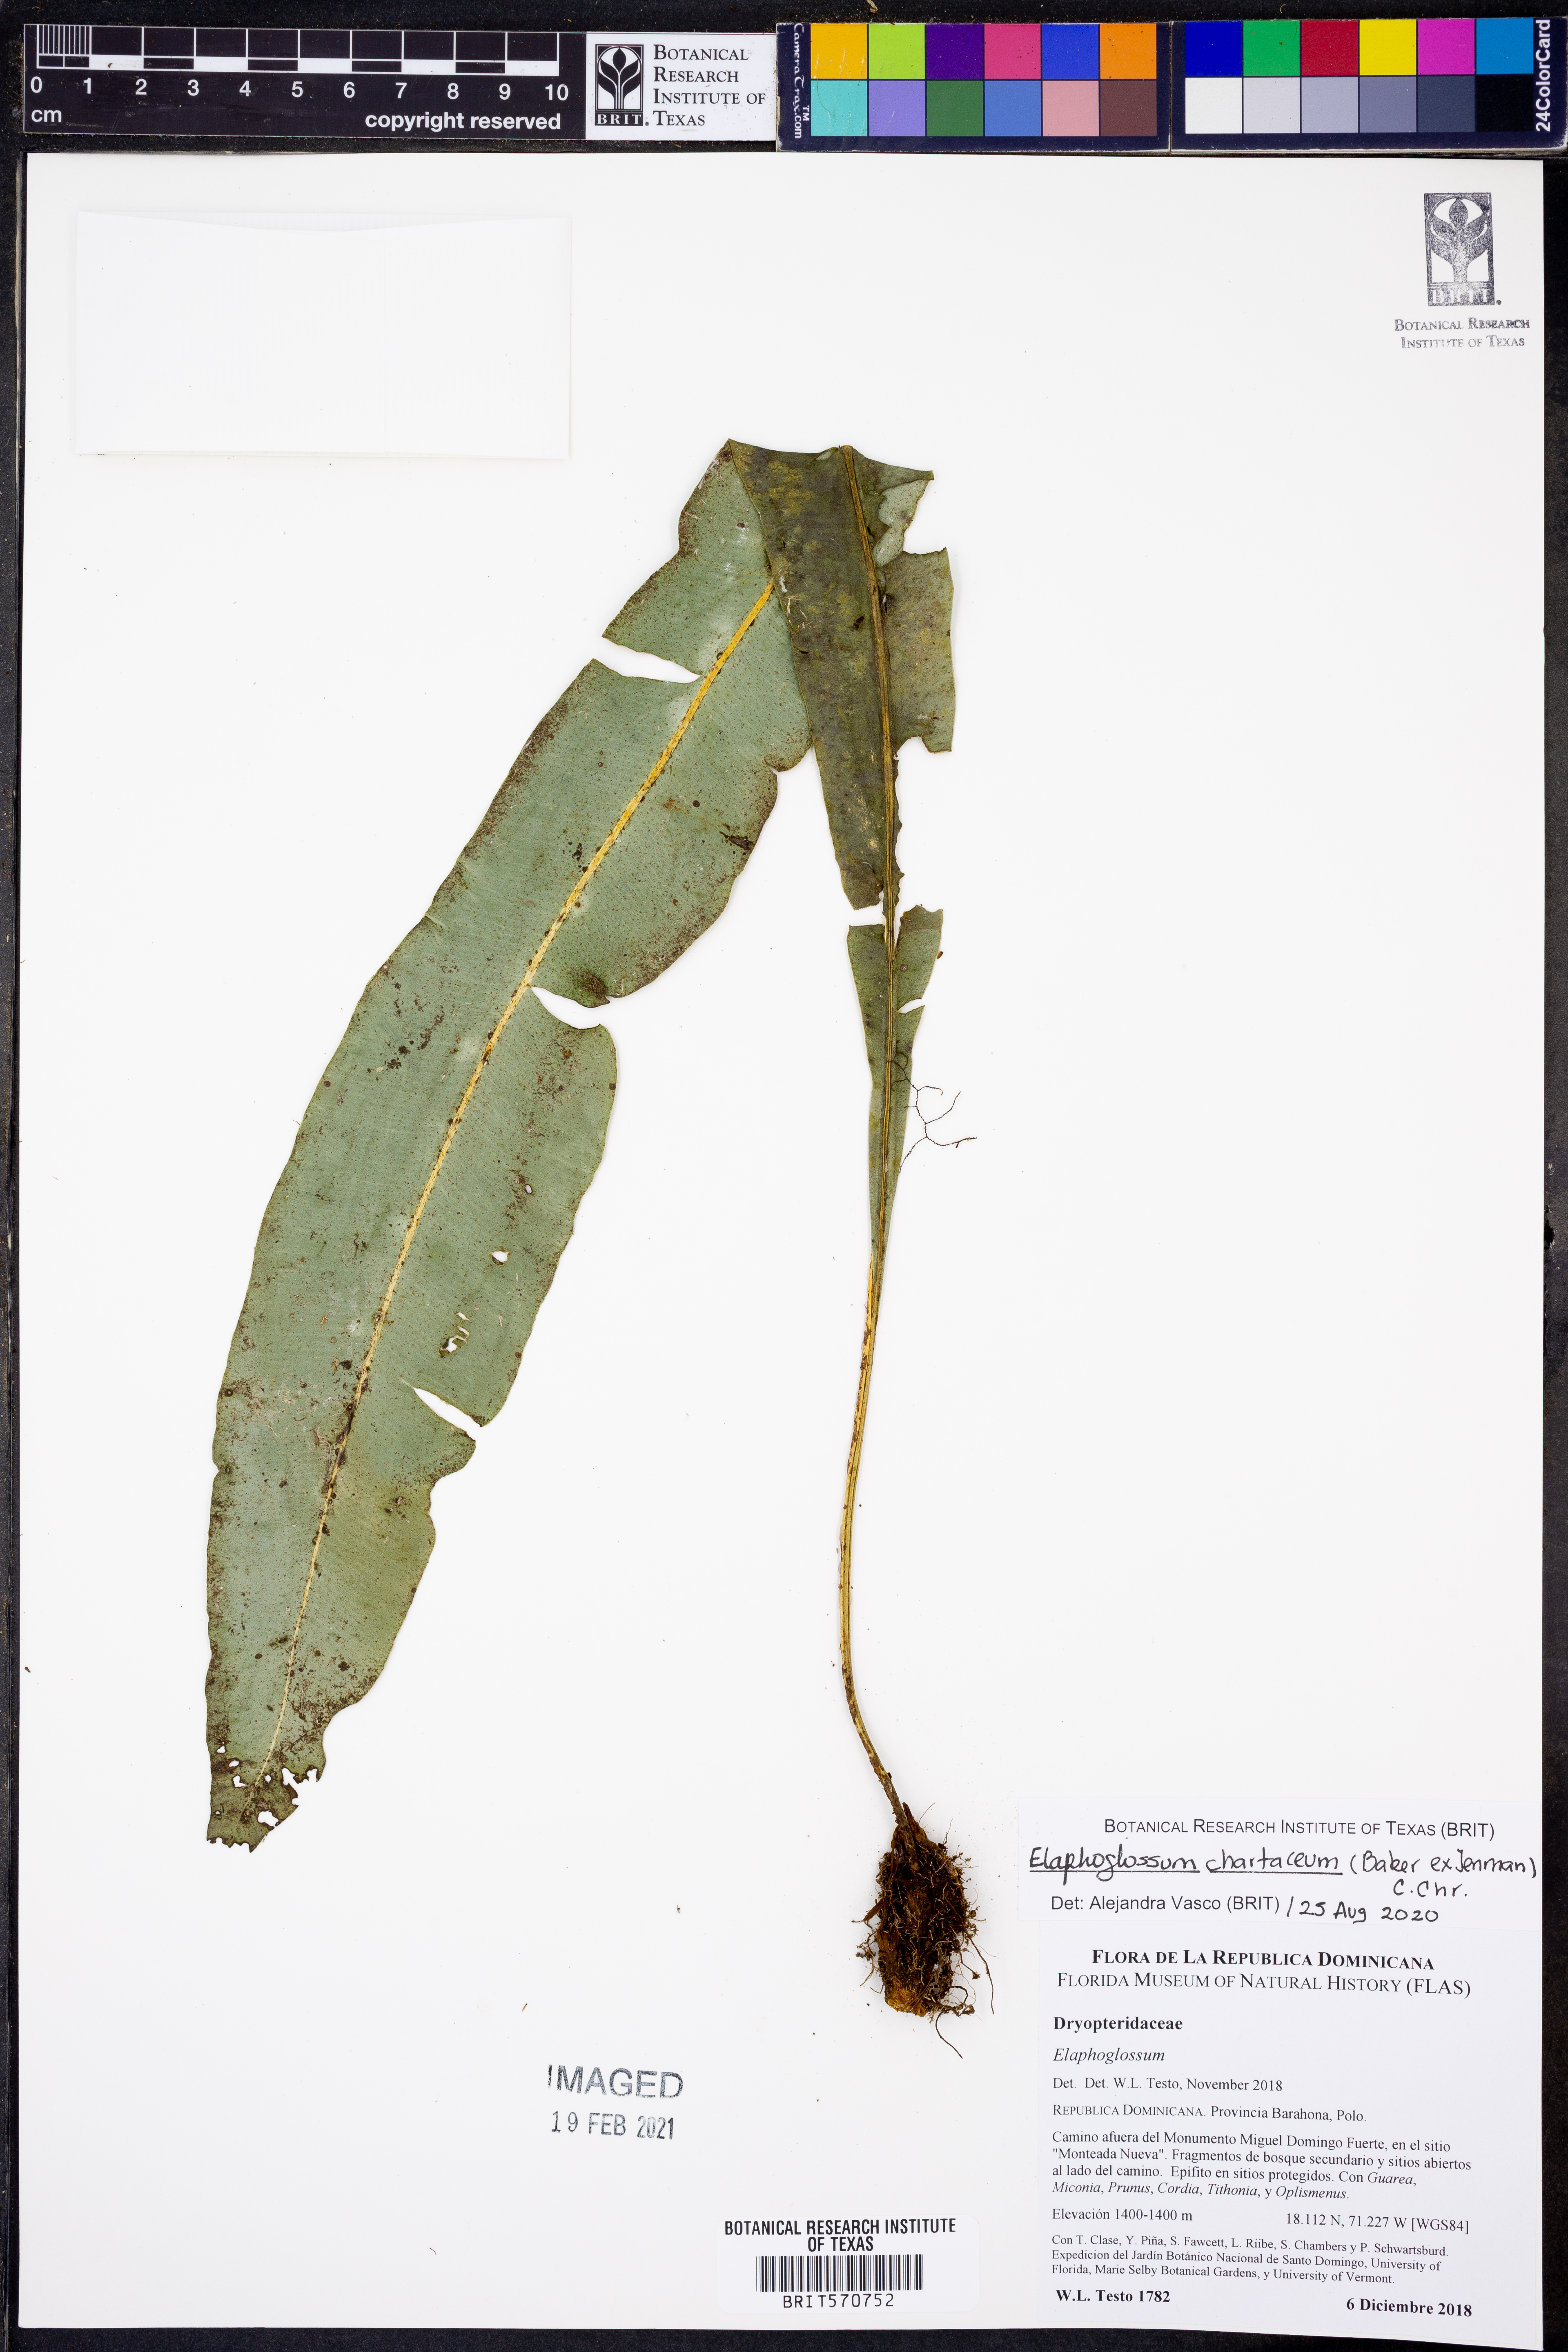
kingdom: Plantae
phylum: Tracheophyta
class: Polypodiopsida
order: Polypodiales
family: Dryopteridaceae
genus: Elaphoglossum
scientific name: Elaphoglossum chartaceum
